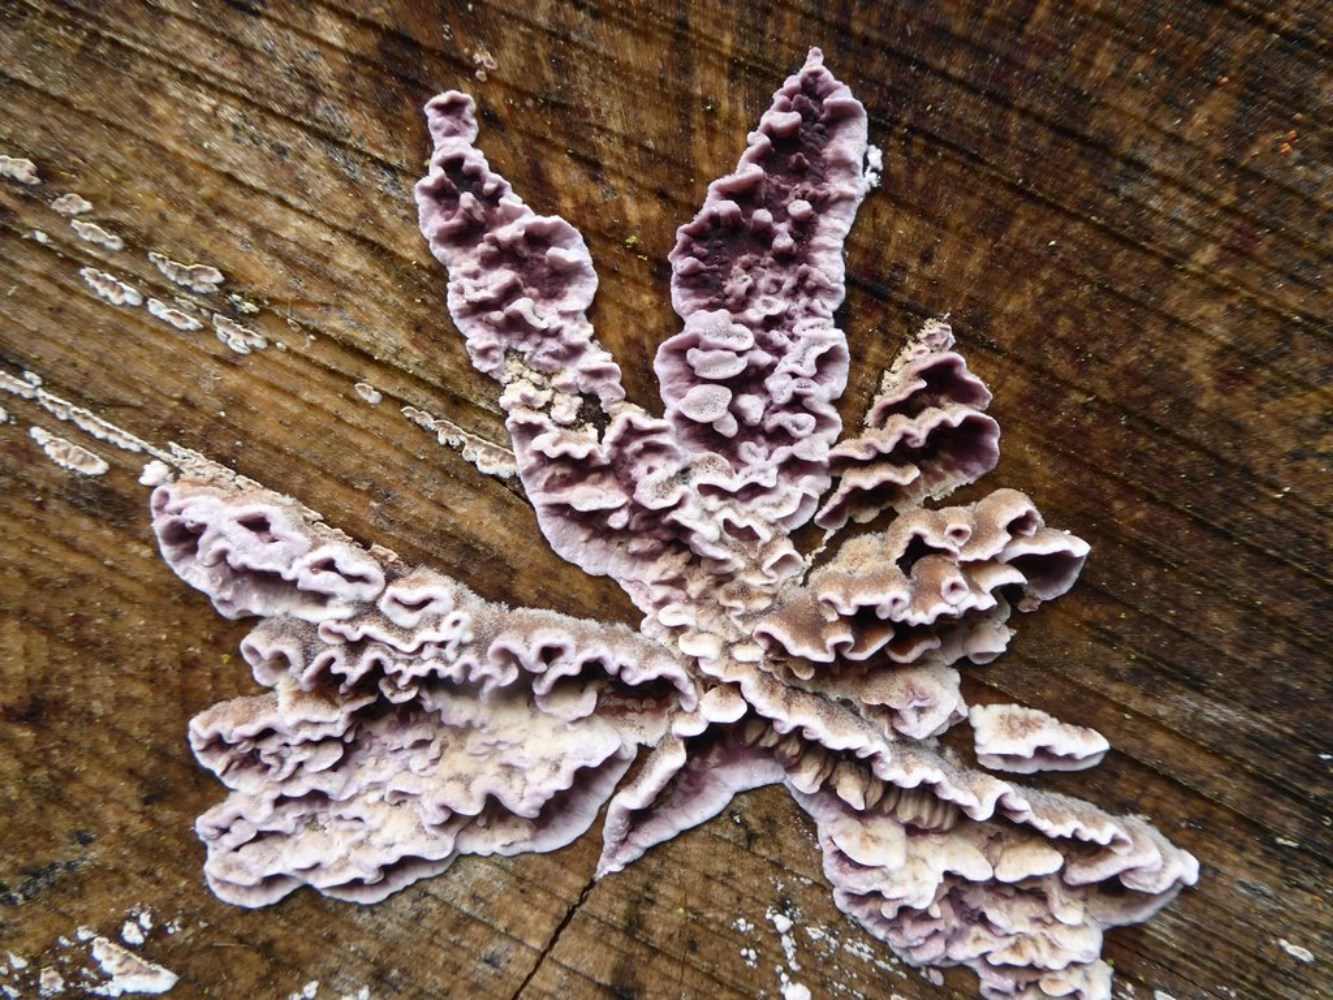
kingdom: Fungi
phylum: Basidiomycota
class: Agaricomycetes
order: Agaricales
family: Cyphellaceae
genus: Chondrostereum
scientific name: Chondrostereum purpureum
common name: purpurlædersvamp
